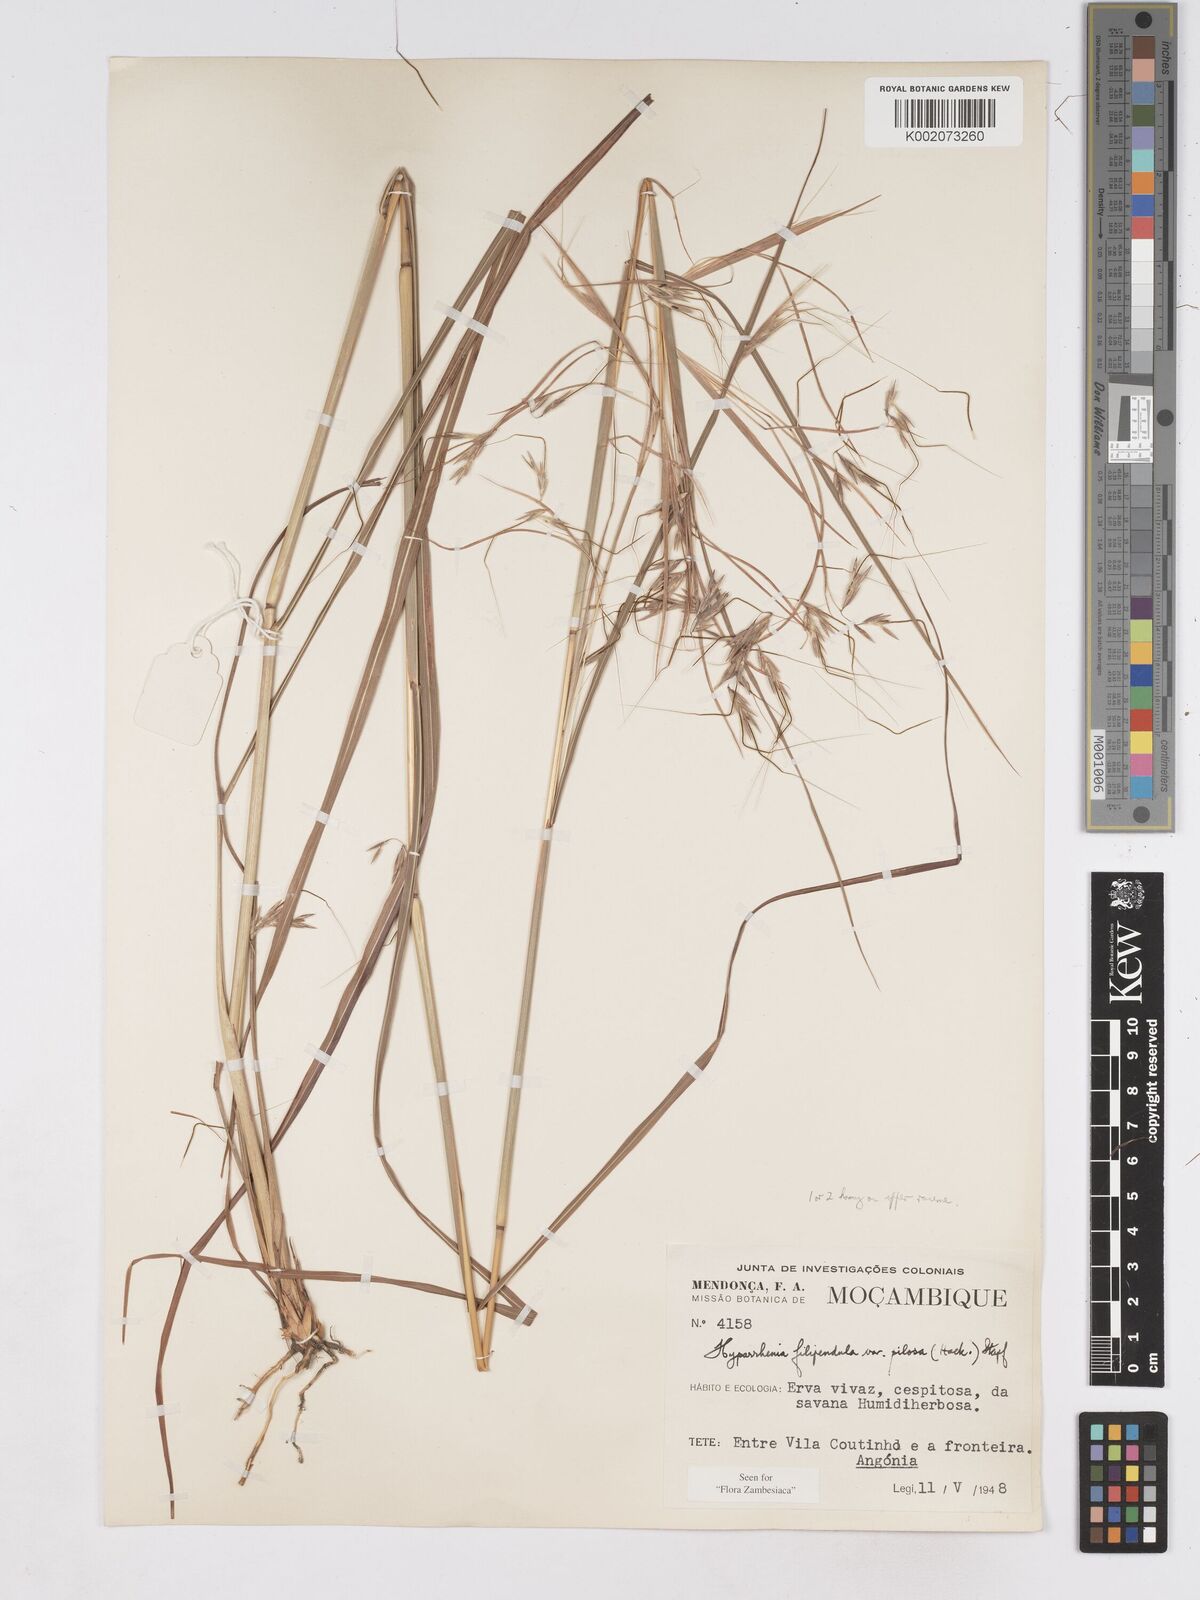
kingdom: Plantae
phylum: Tracheophyta
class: Liliopsida
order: Poales
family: Poaceae
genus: Hyparrhenia
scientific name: Hyparrhenia filipendula
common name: Tambookie grass
